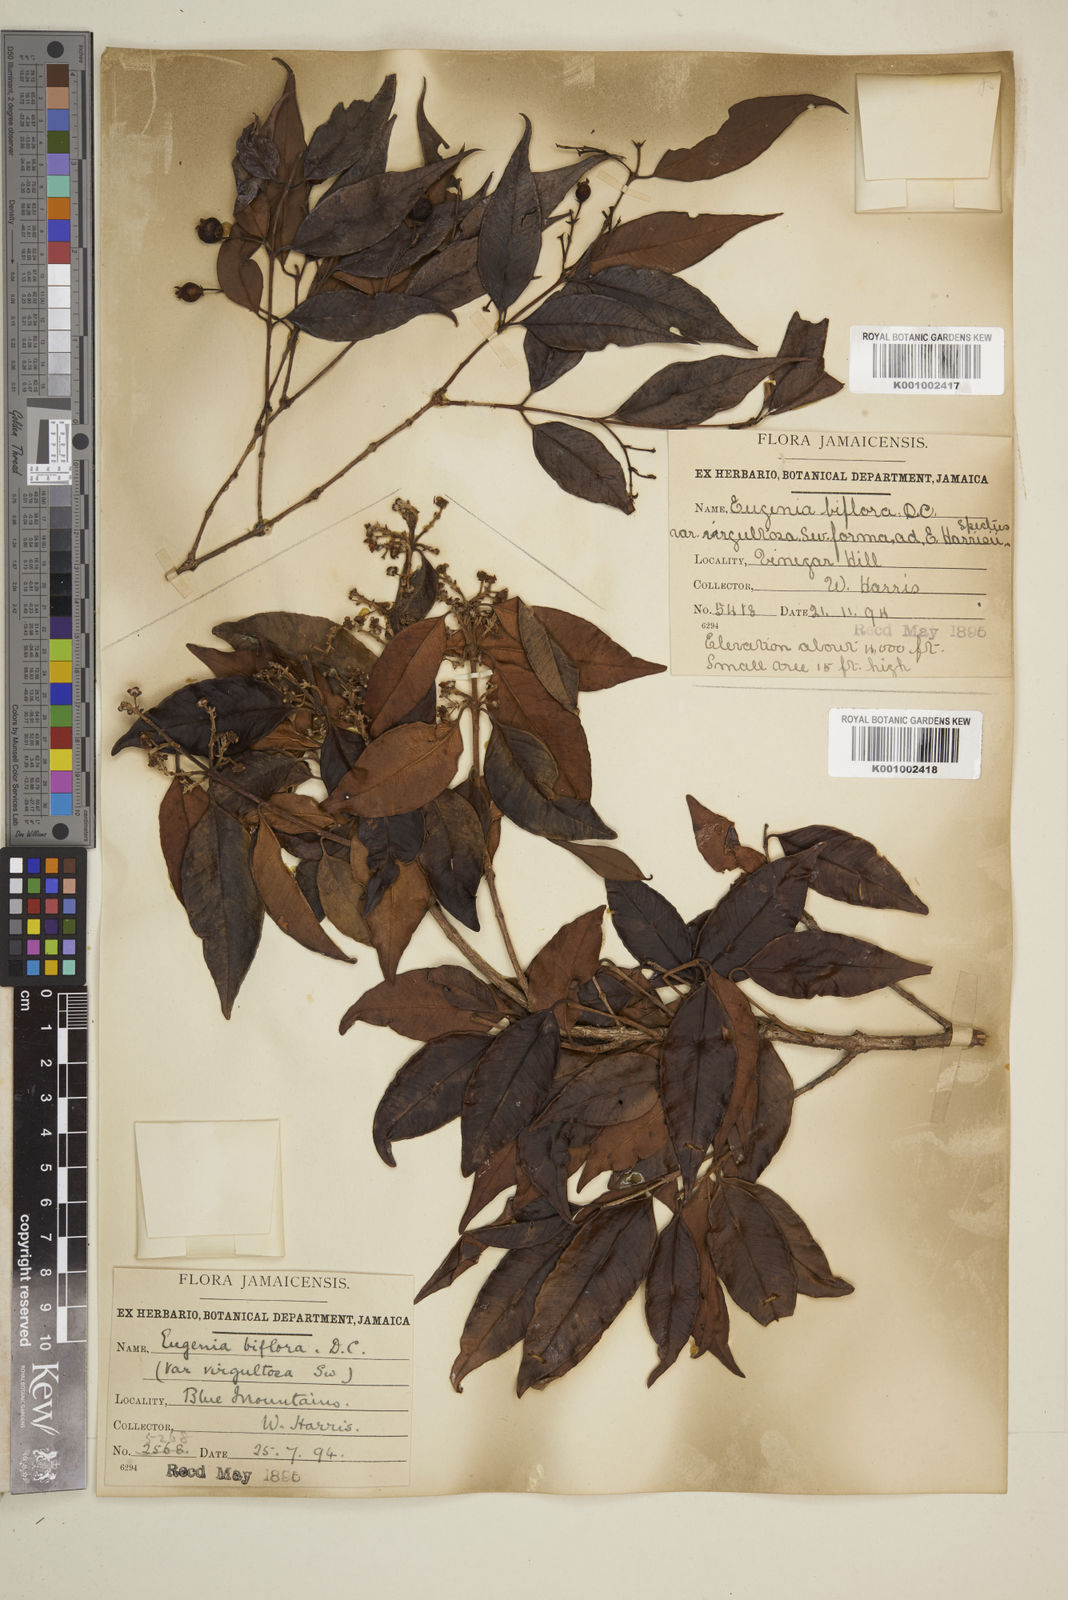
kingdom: Plantae
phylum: Tracheophyta
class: Magnoliopsida
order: Myrtales
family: Myrtaceae
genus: Eugenia
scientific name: Eugenia biflora
